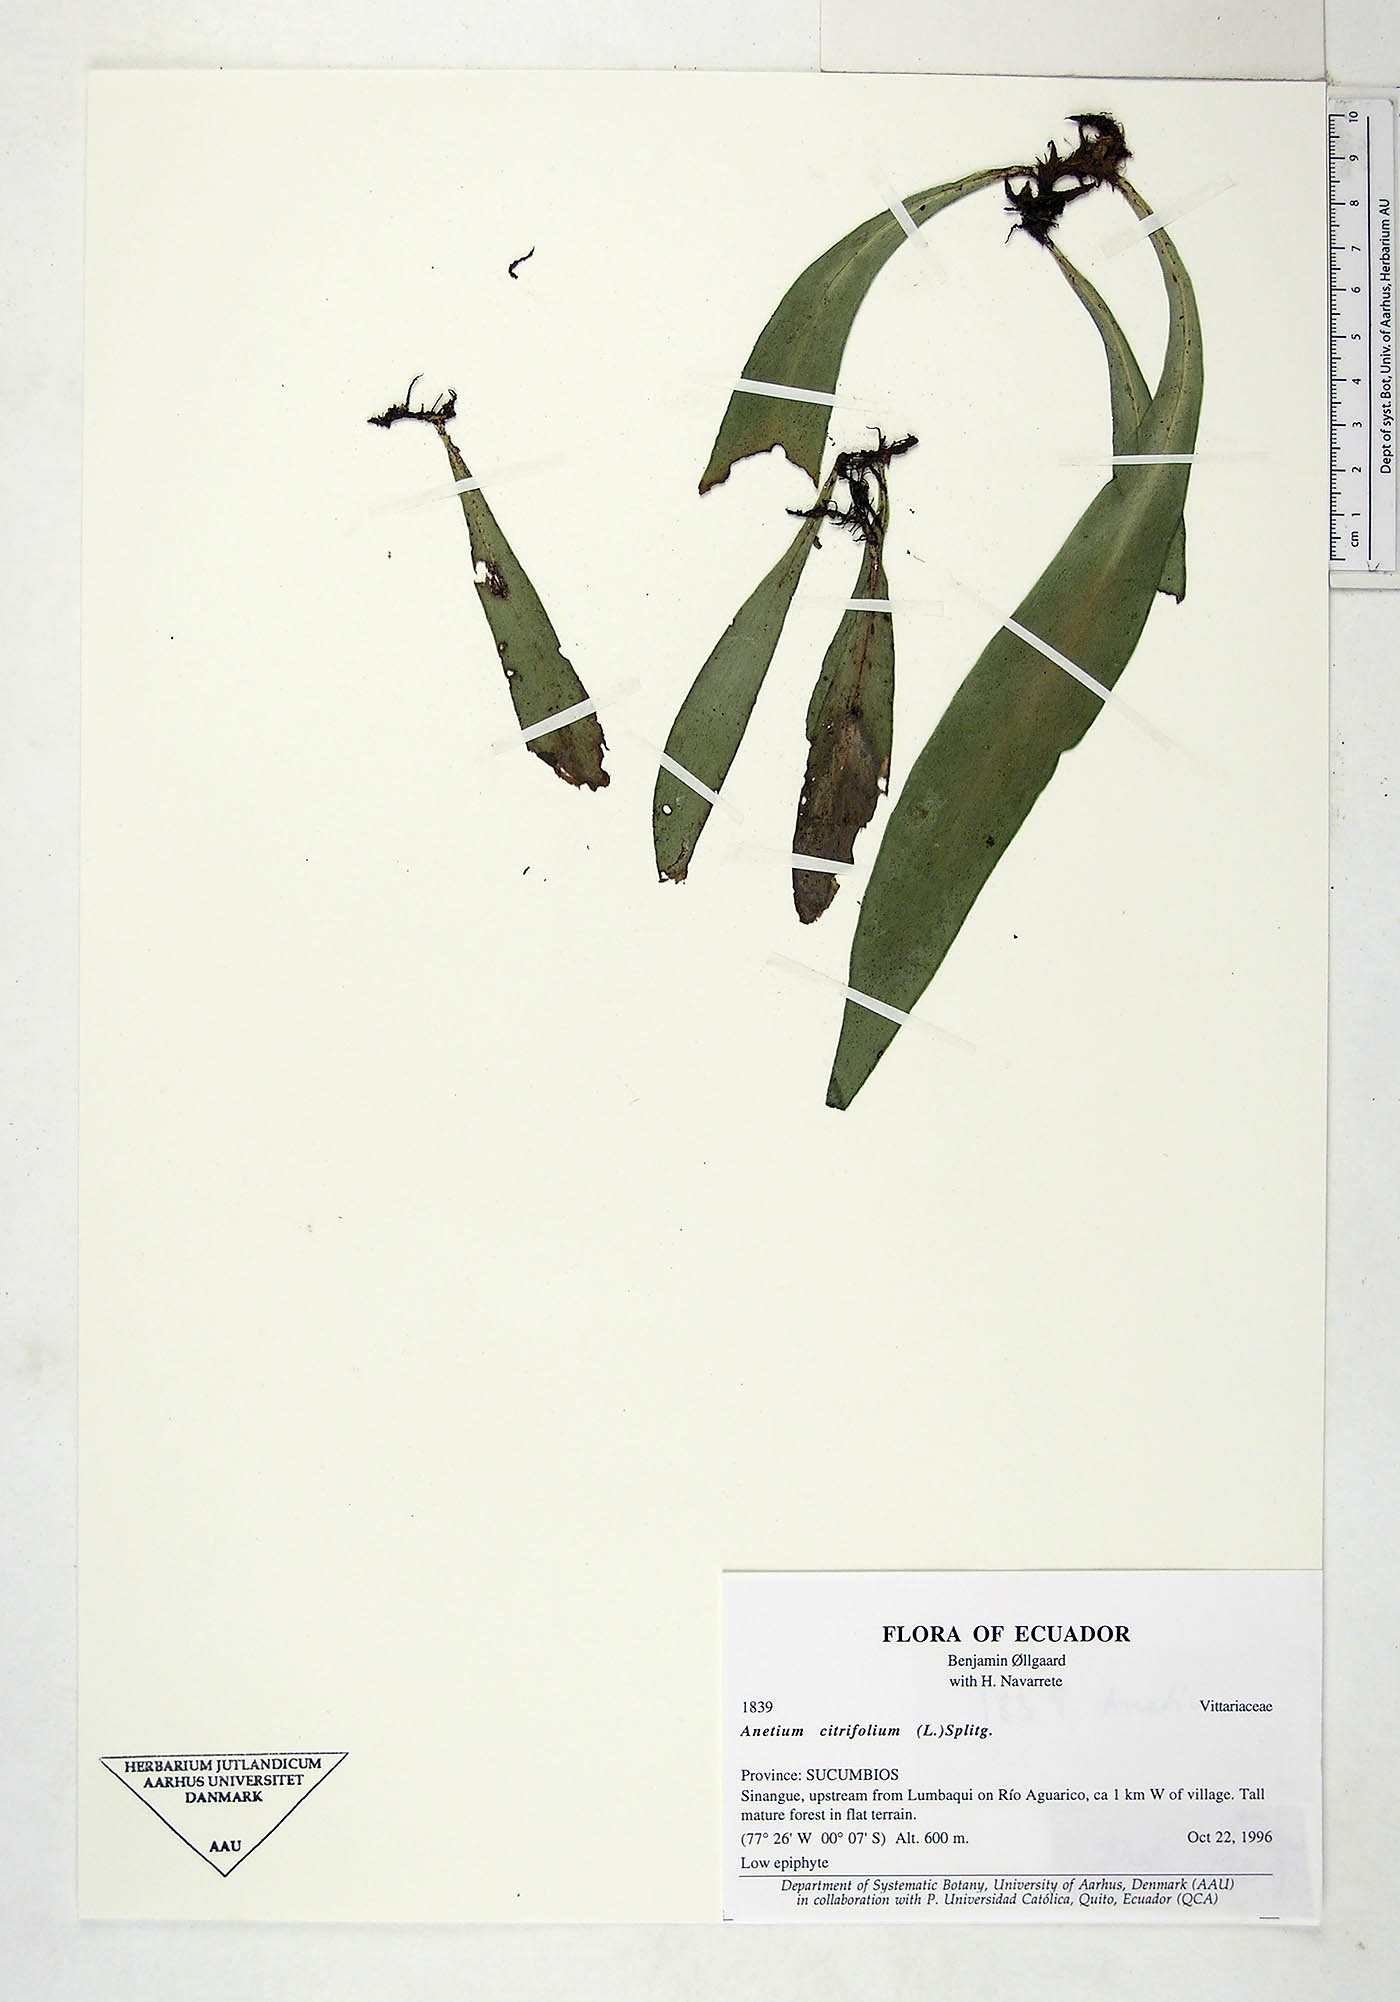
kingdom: Plantae
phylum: Tracheophyta
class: Polypodiopsida
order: Polypodiales
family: Pteridaceae
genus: Polytaenium
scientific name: Polytaenium citrifolium
